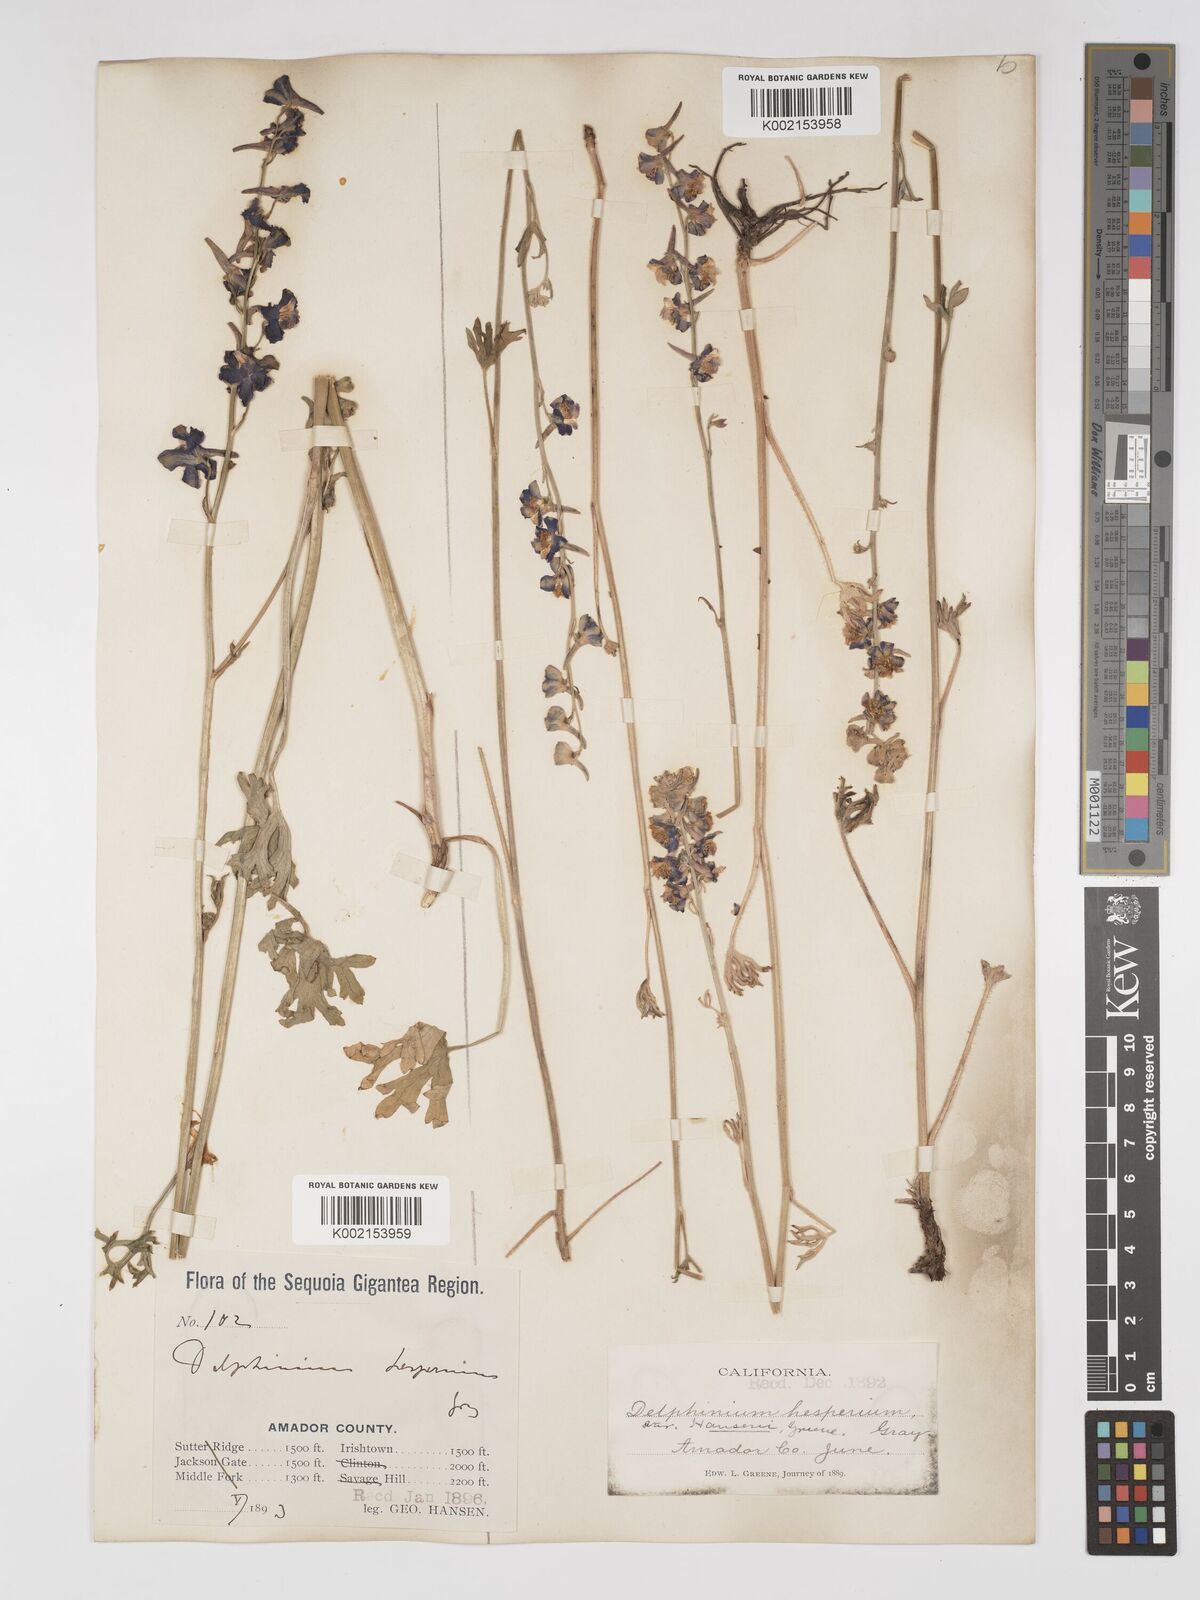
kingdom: Plantae
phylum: Tracheophyta
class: Magnoliopsida
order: Ranunculales
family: Ranunculaceae
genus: Delphinium
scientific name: Delphinium hansenii
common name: Hansen's larkspur
